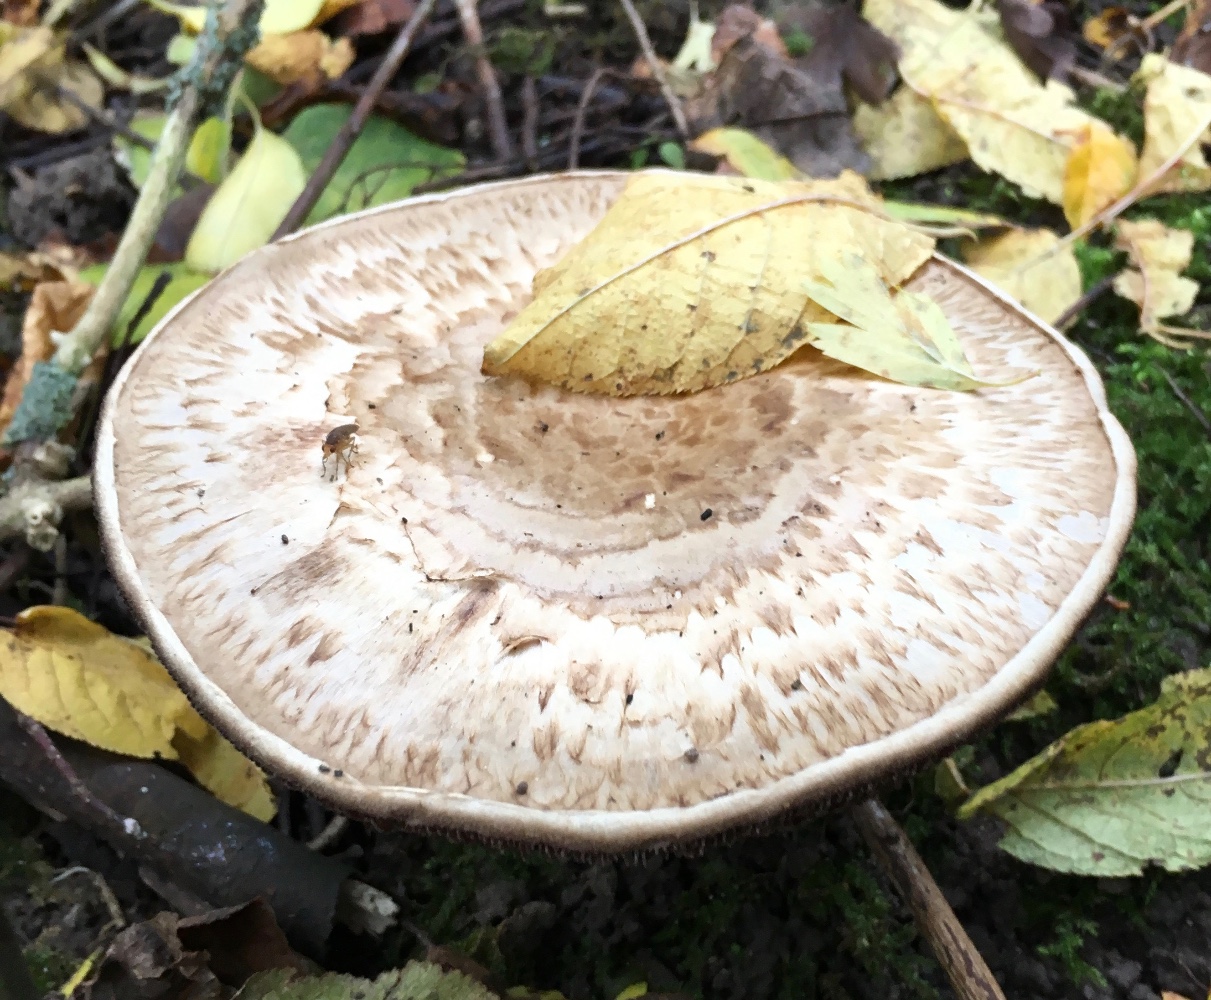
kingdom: Fungi
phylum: Basidiomycota
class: Agaricomycetes
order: Agaricales
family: Agaricaceae
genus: Agaricus
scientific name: Agaricus subperonatus
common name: knippe-champignon
